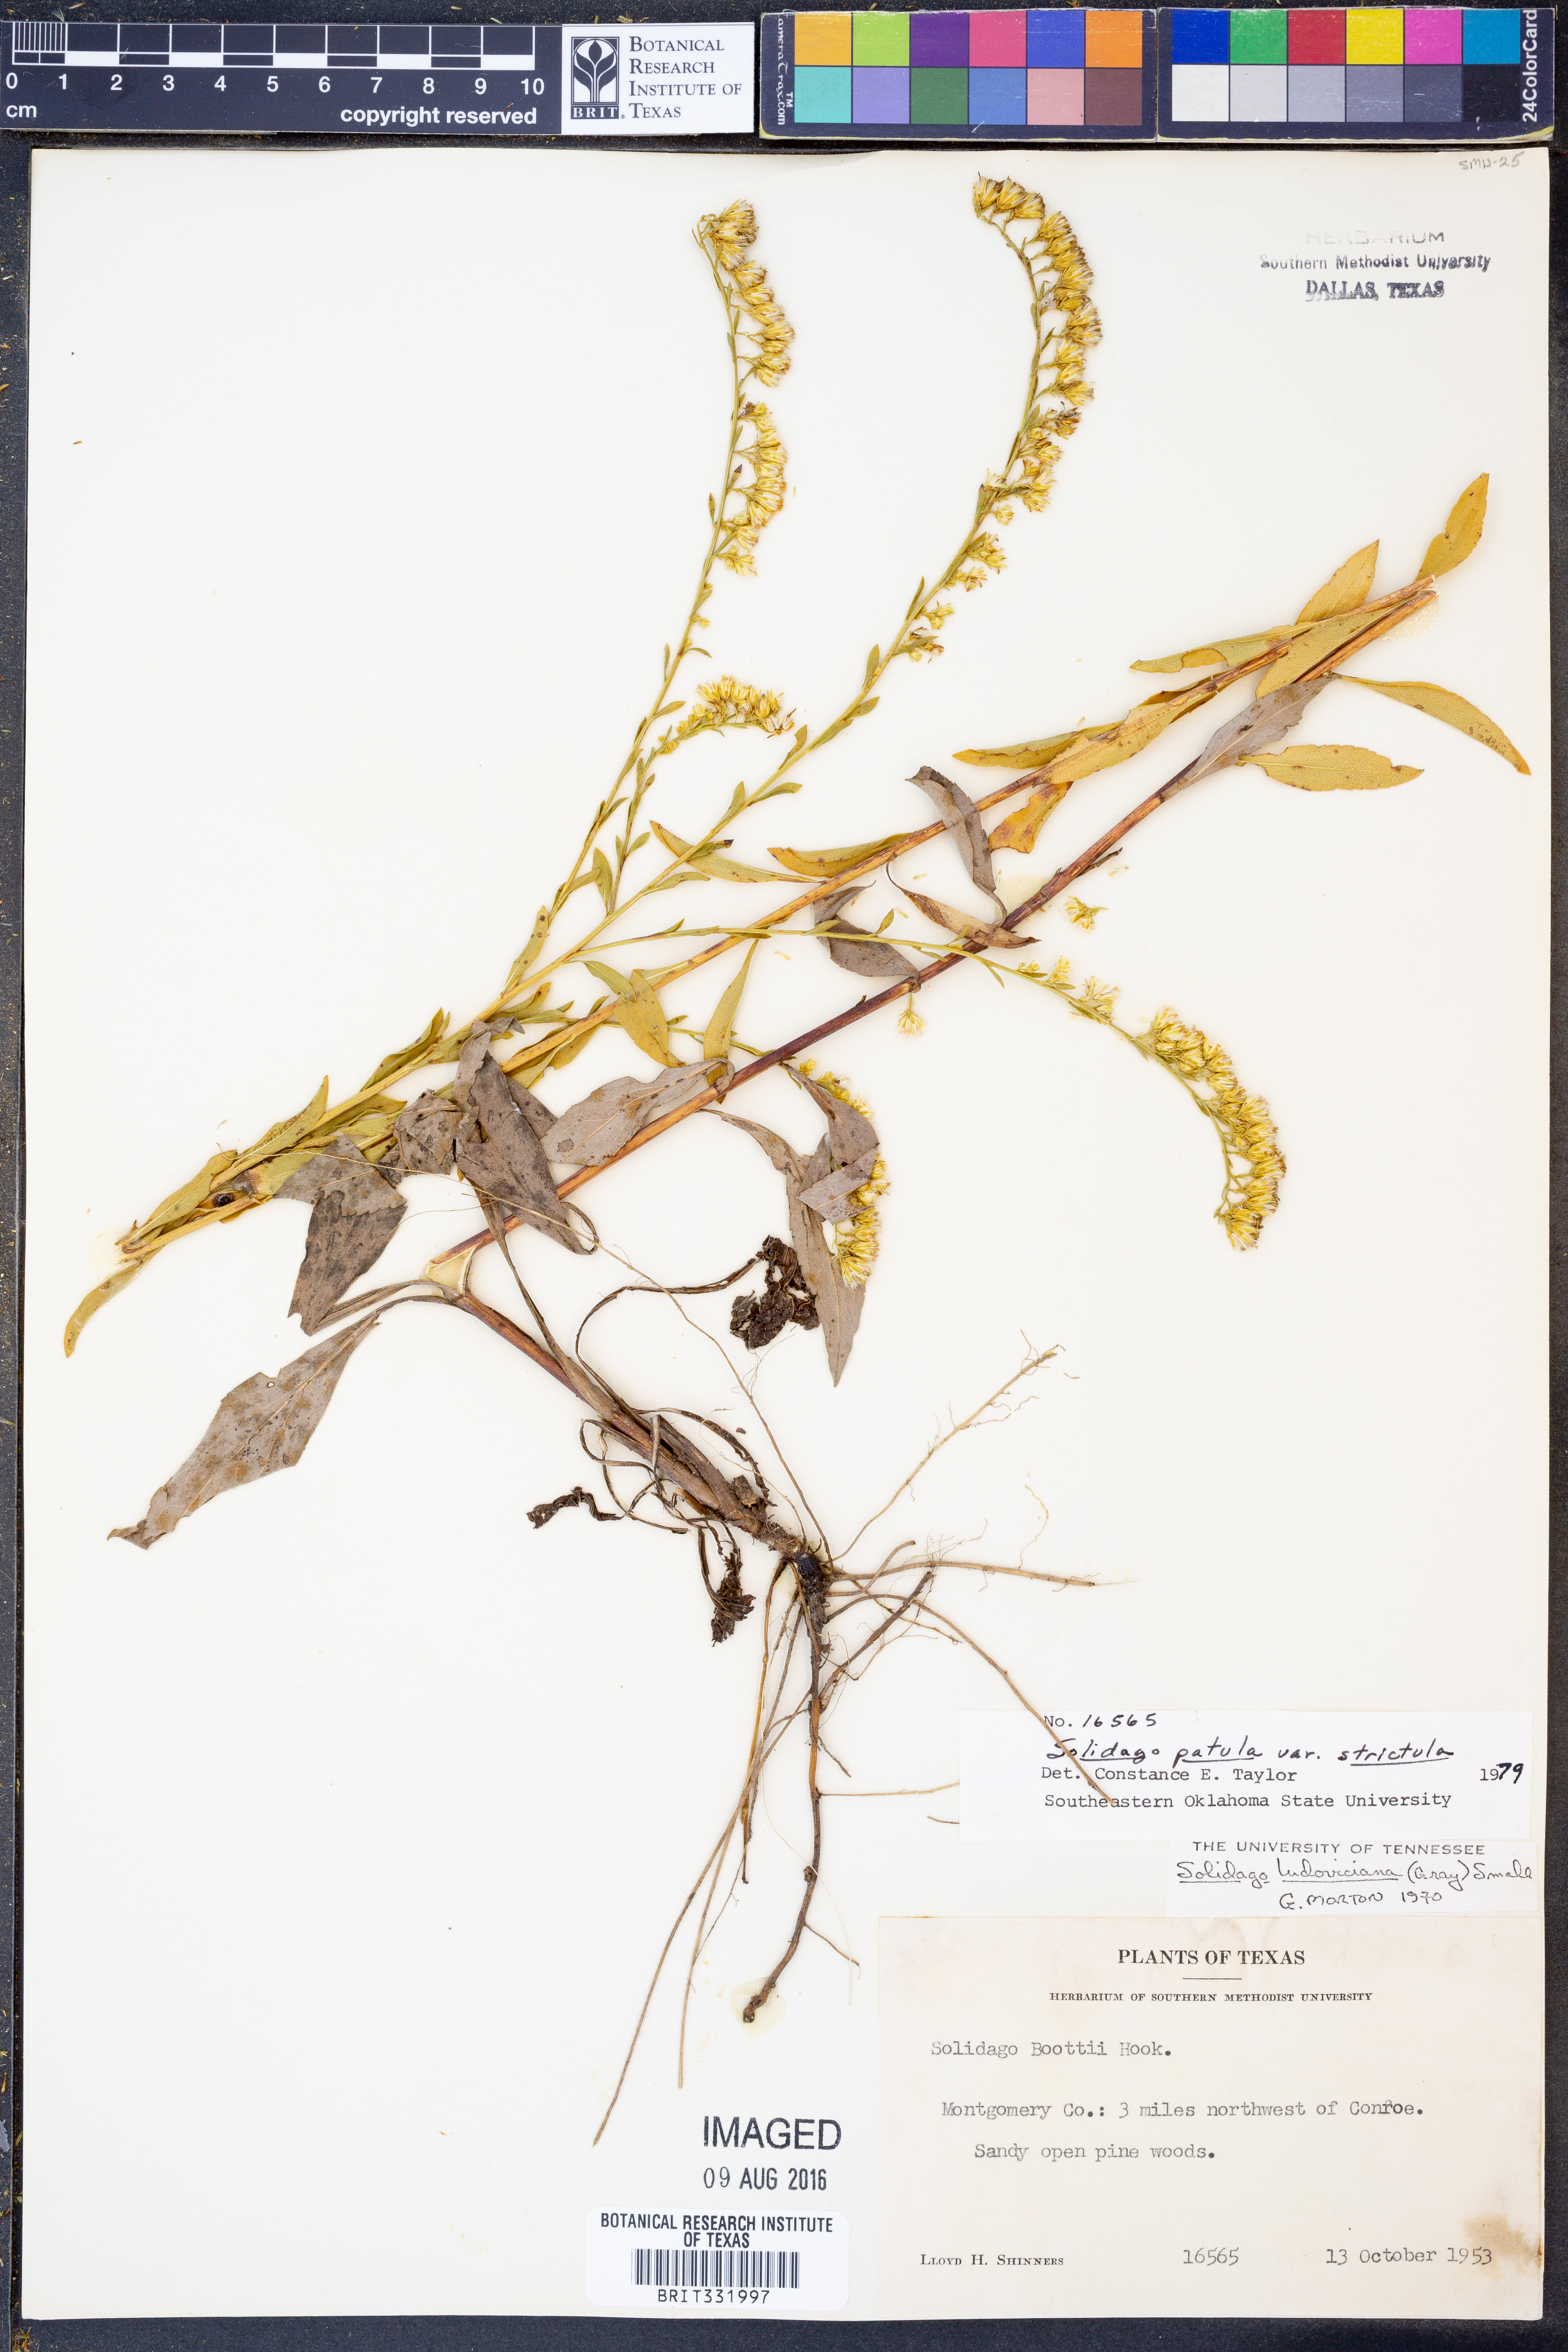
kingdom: Plantae
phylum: Tracheophyta
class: Magnoliopsida
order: Asterales
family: Asteraceae
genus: Solidago
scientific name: Solidago salicina
